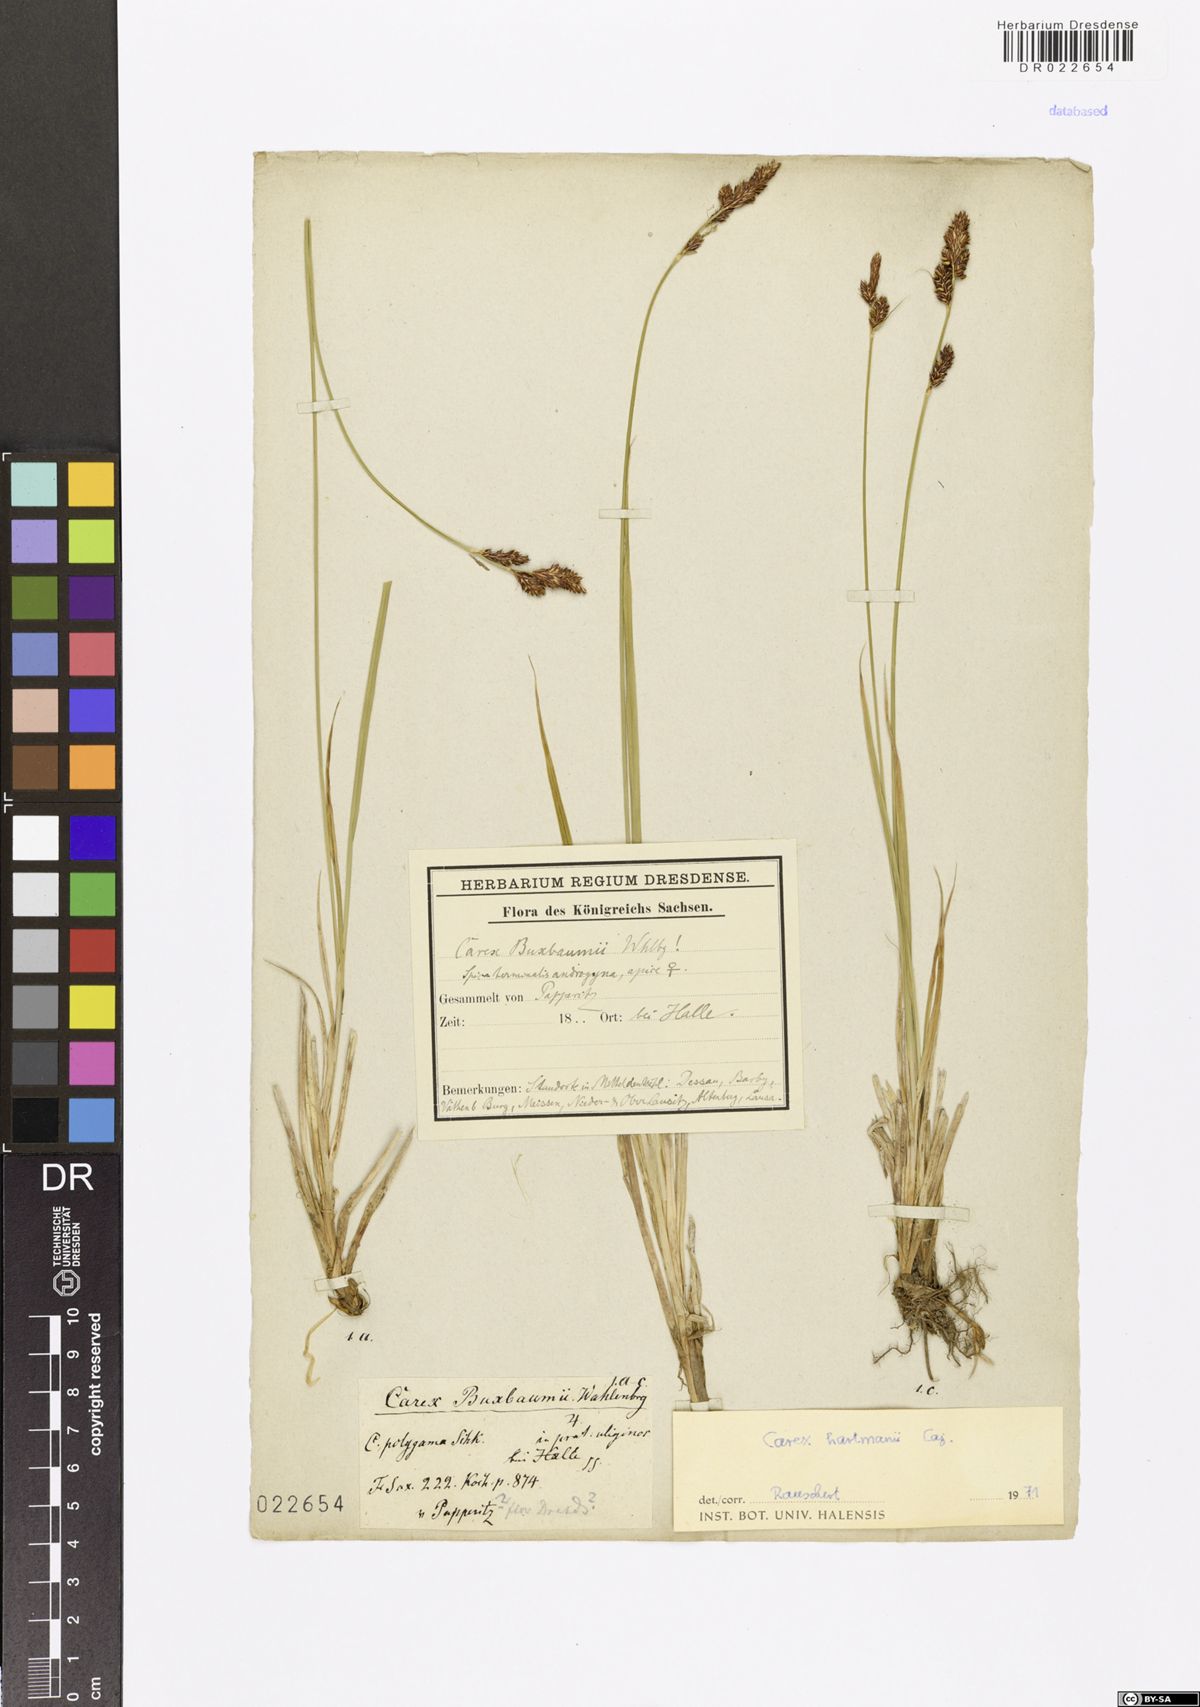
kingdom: Plantae
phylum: Tracheophyta
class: Liliopsida
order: Poales
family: Cyperaceae
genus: Carex
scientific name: Carex hartmaniorum
